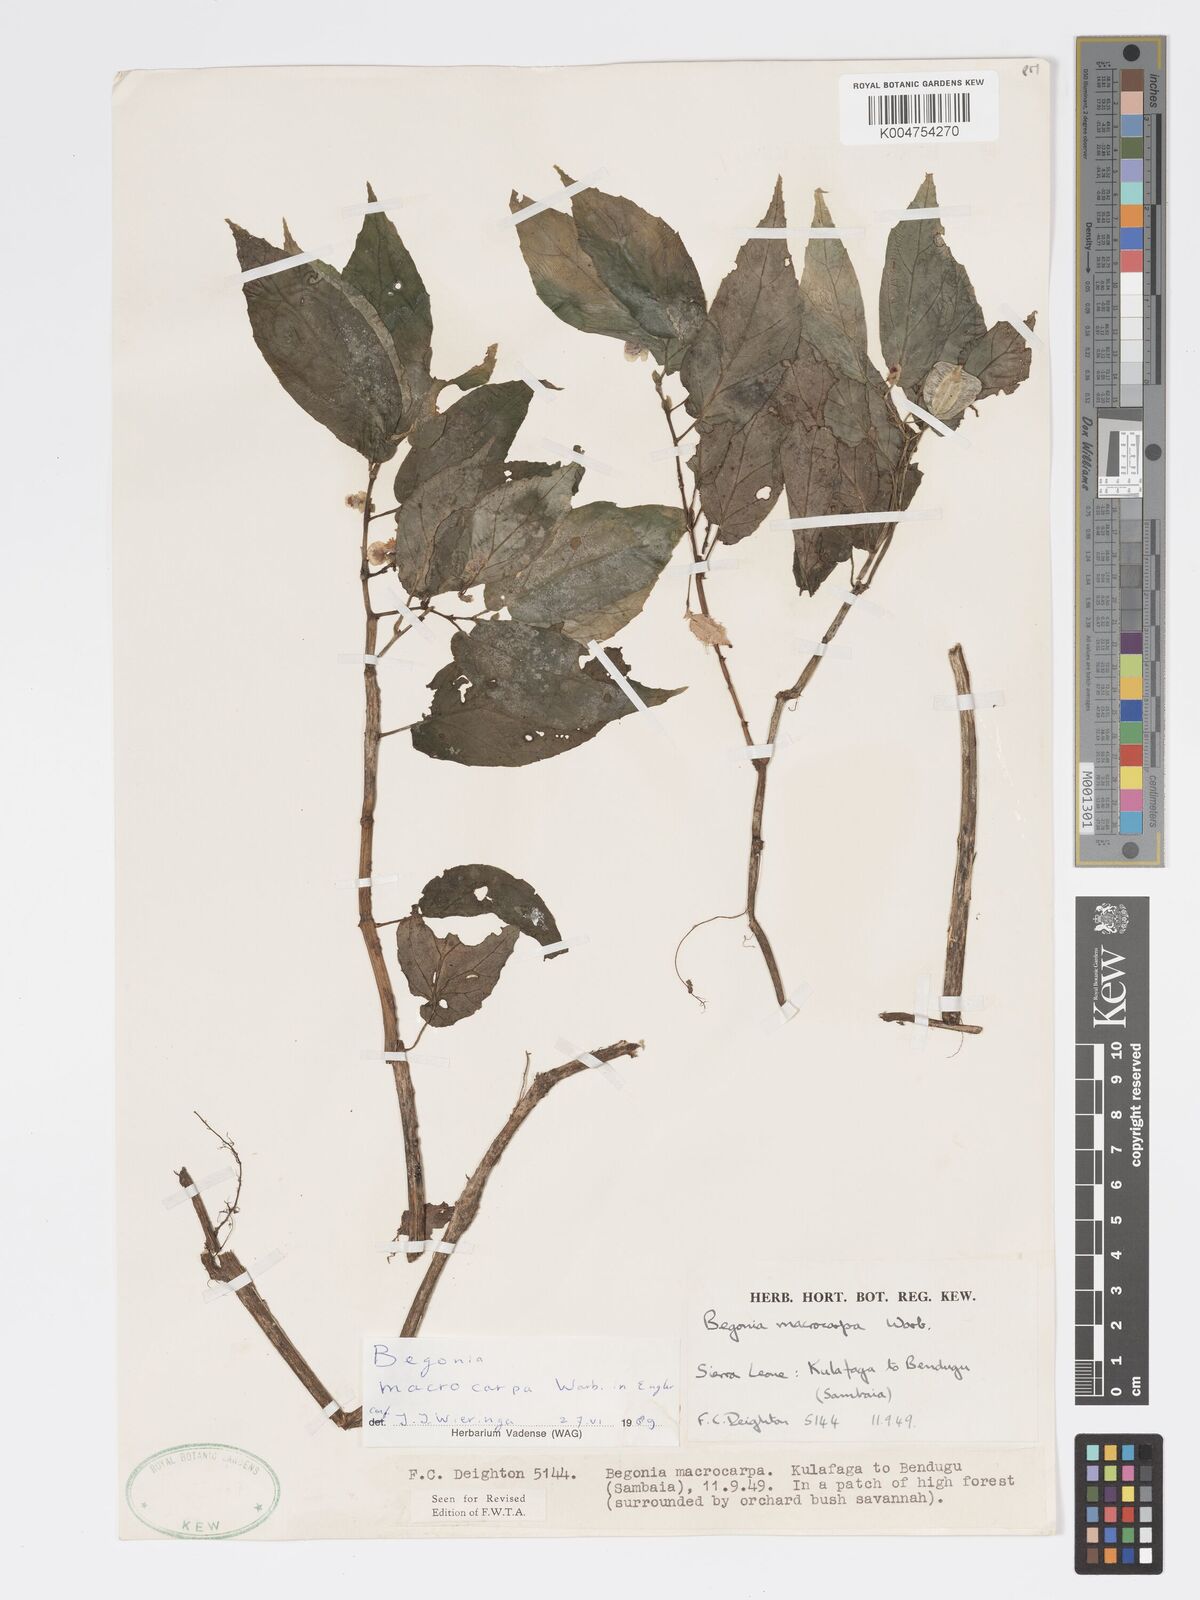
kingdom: Plantae
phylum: Tracheophyta
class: Magnoliopsida
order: Cucurbitales
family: Begoniaceae
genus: Begonia
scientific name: Begonia macrocarpa
